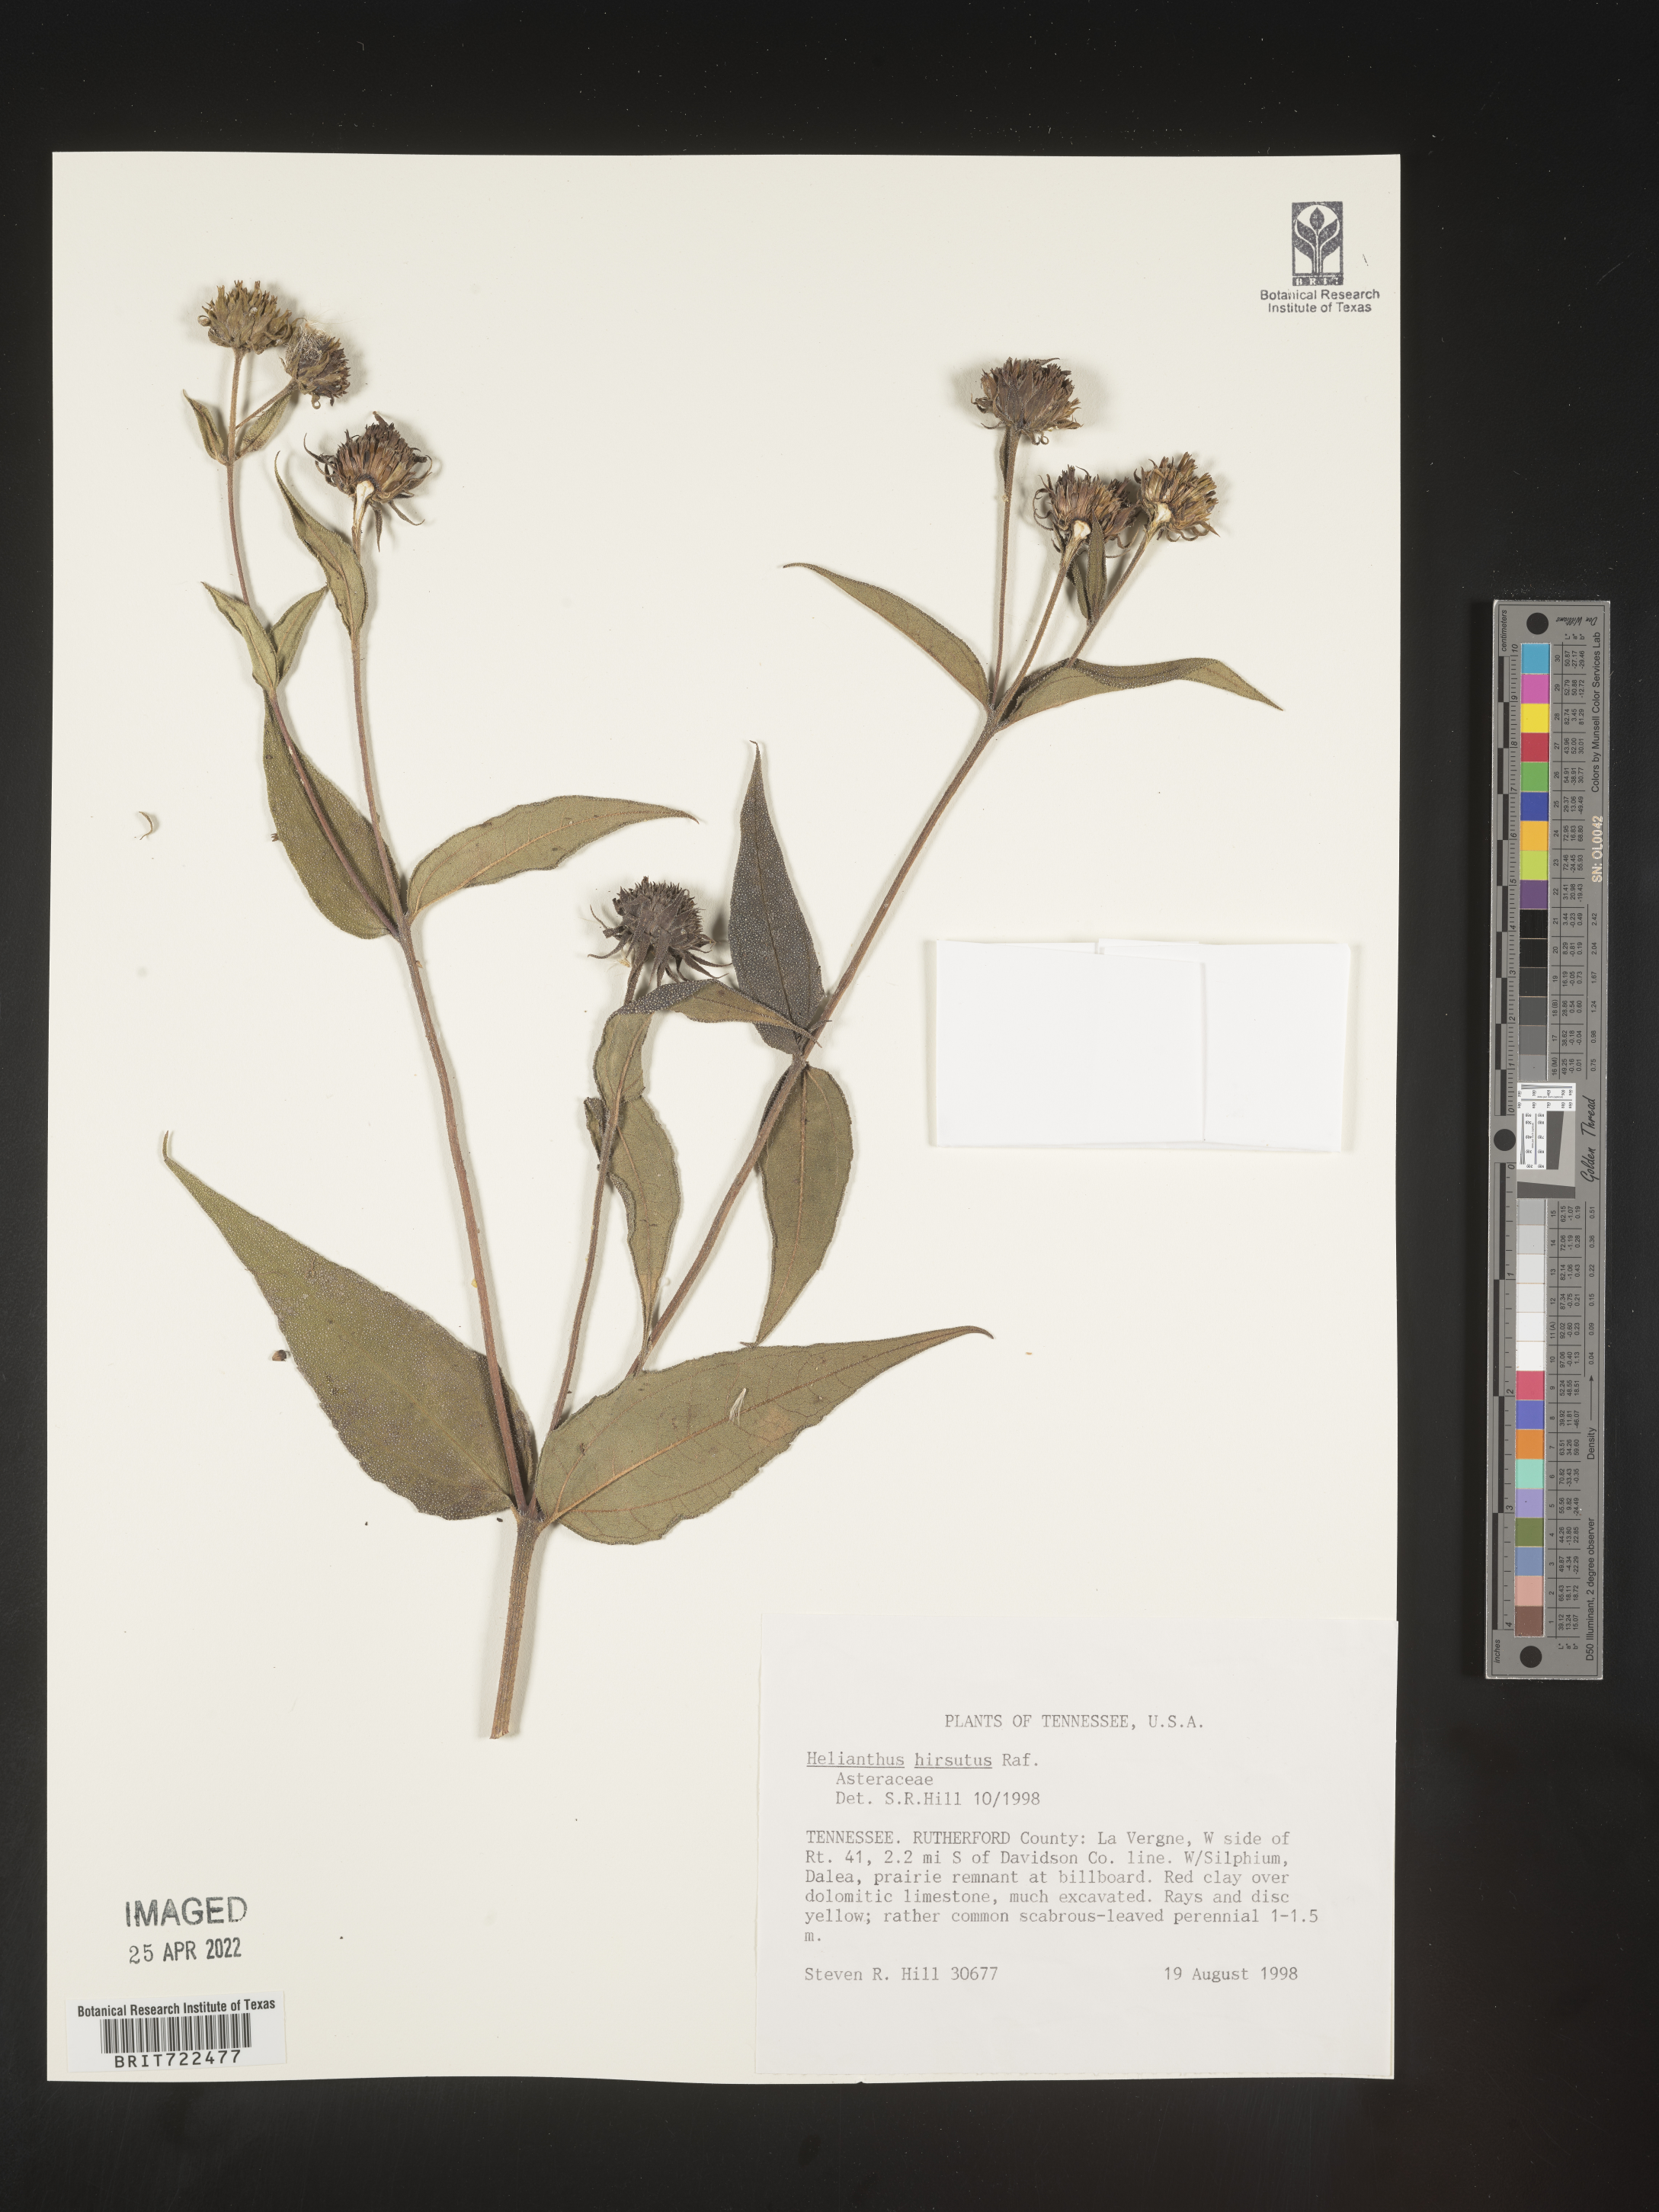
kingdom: Plantae
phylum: Tracheophyta
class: Magnoliopsida
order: Asterales
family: Asteraceae
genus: Helianthus
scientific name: Helianthus hirsutus
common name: Hairy sunflower
